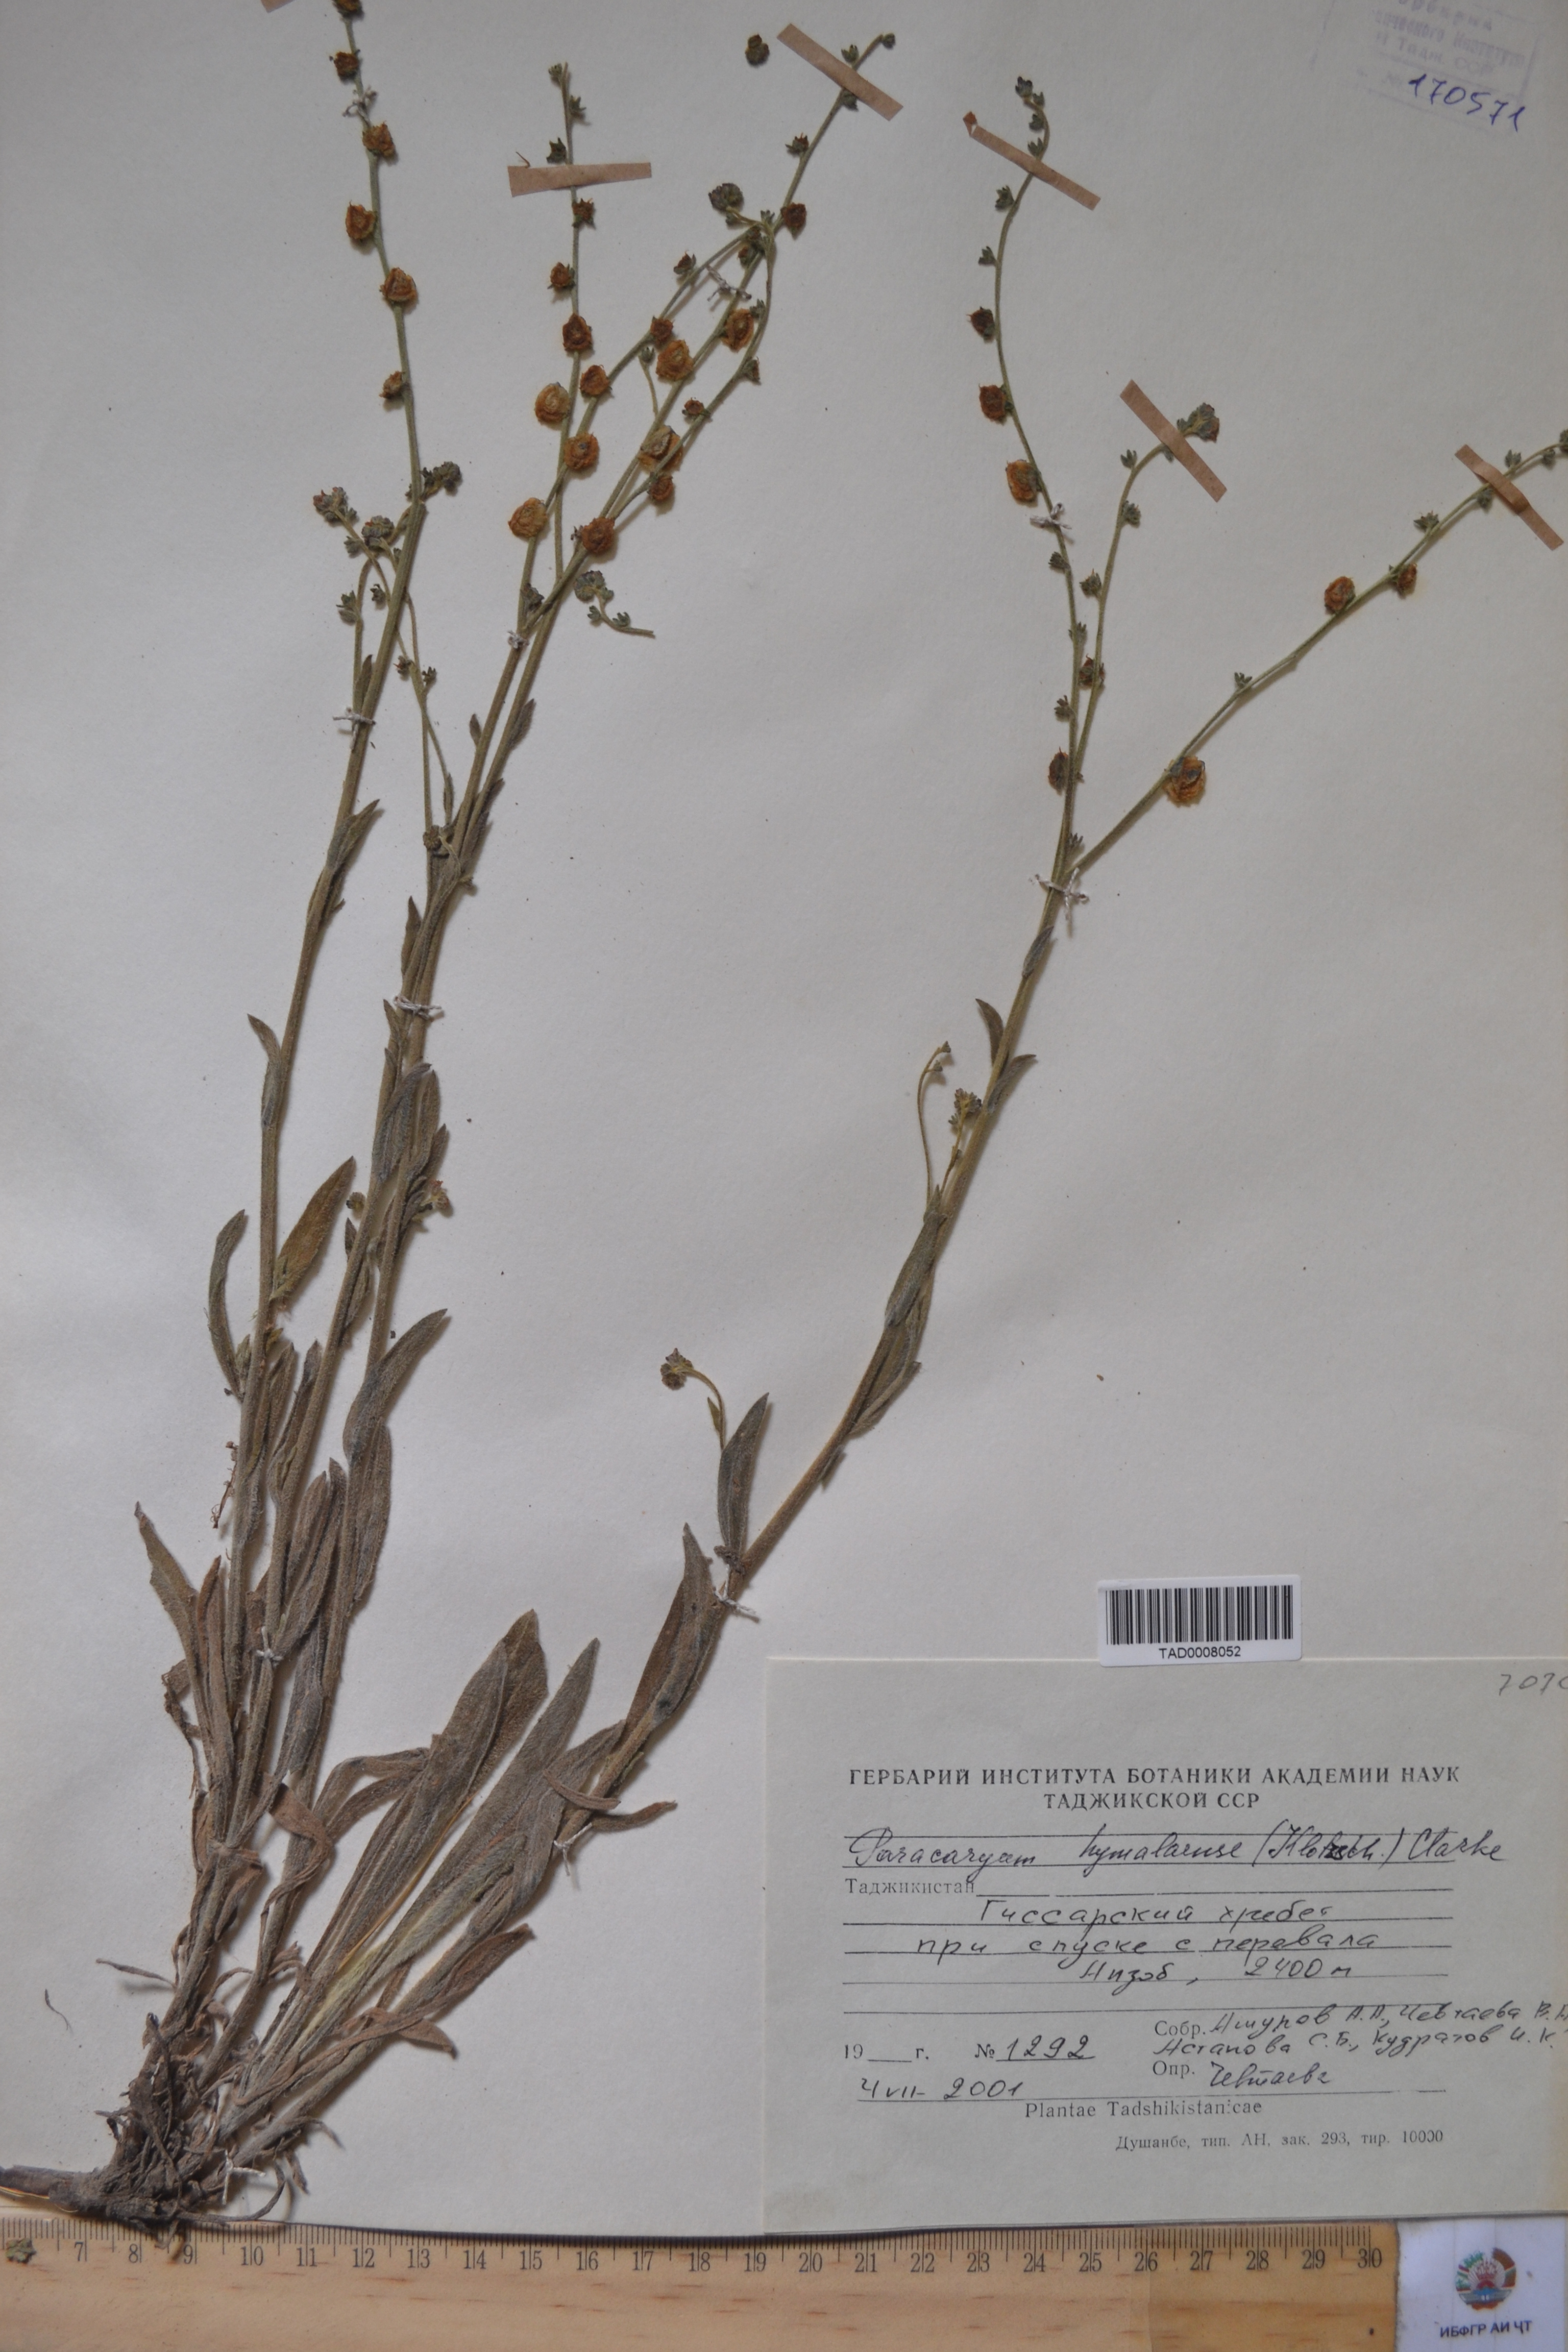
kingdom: Plantae
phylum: Tracheophyta
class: Magnoliopsida
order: Boraginales
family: Boraginaceae
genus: Paracaryum
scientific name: Paracaryum himalayense
